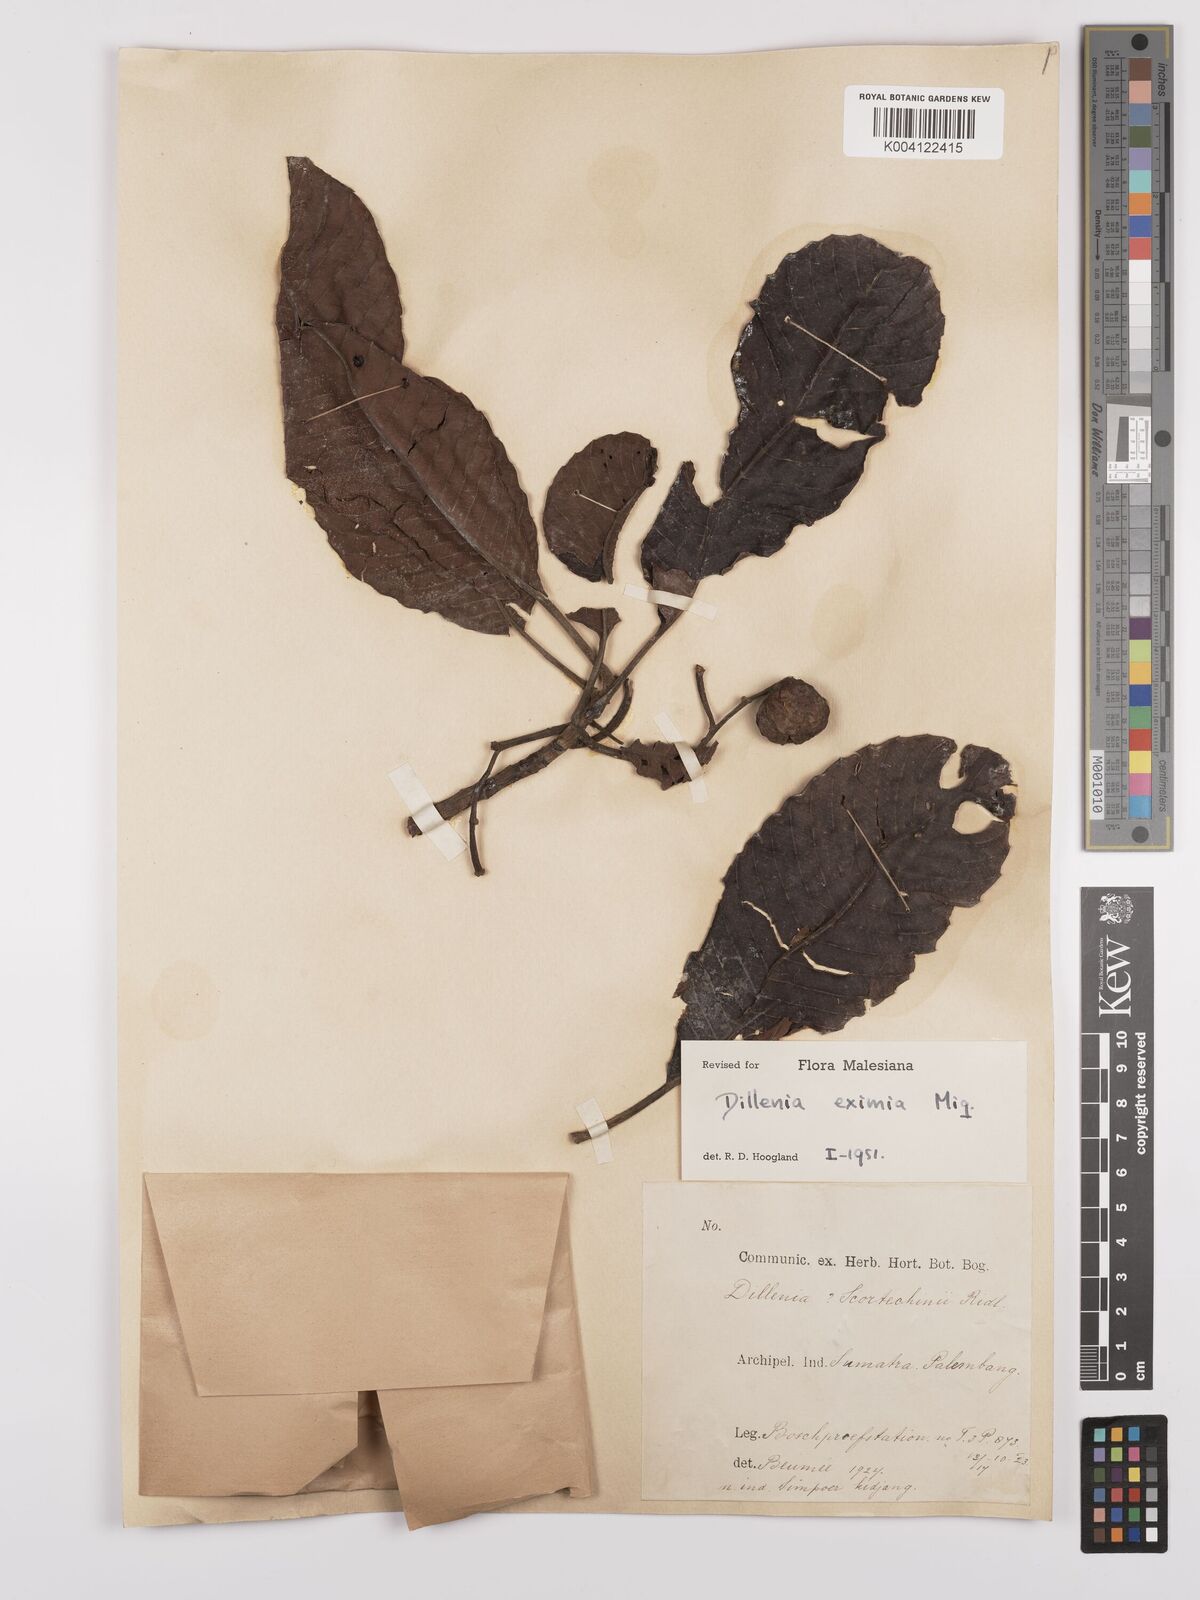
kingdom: Plantae
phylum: Tracheophyta
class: Magnoliopsida
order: Dilleniales
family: Dilleniaceae
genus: Dillenia
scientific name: Dillenia grandifolia
